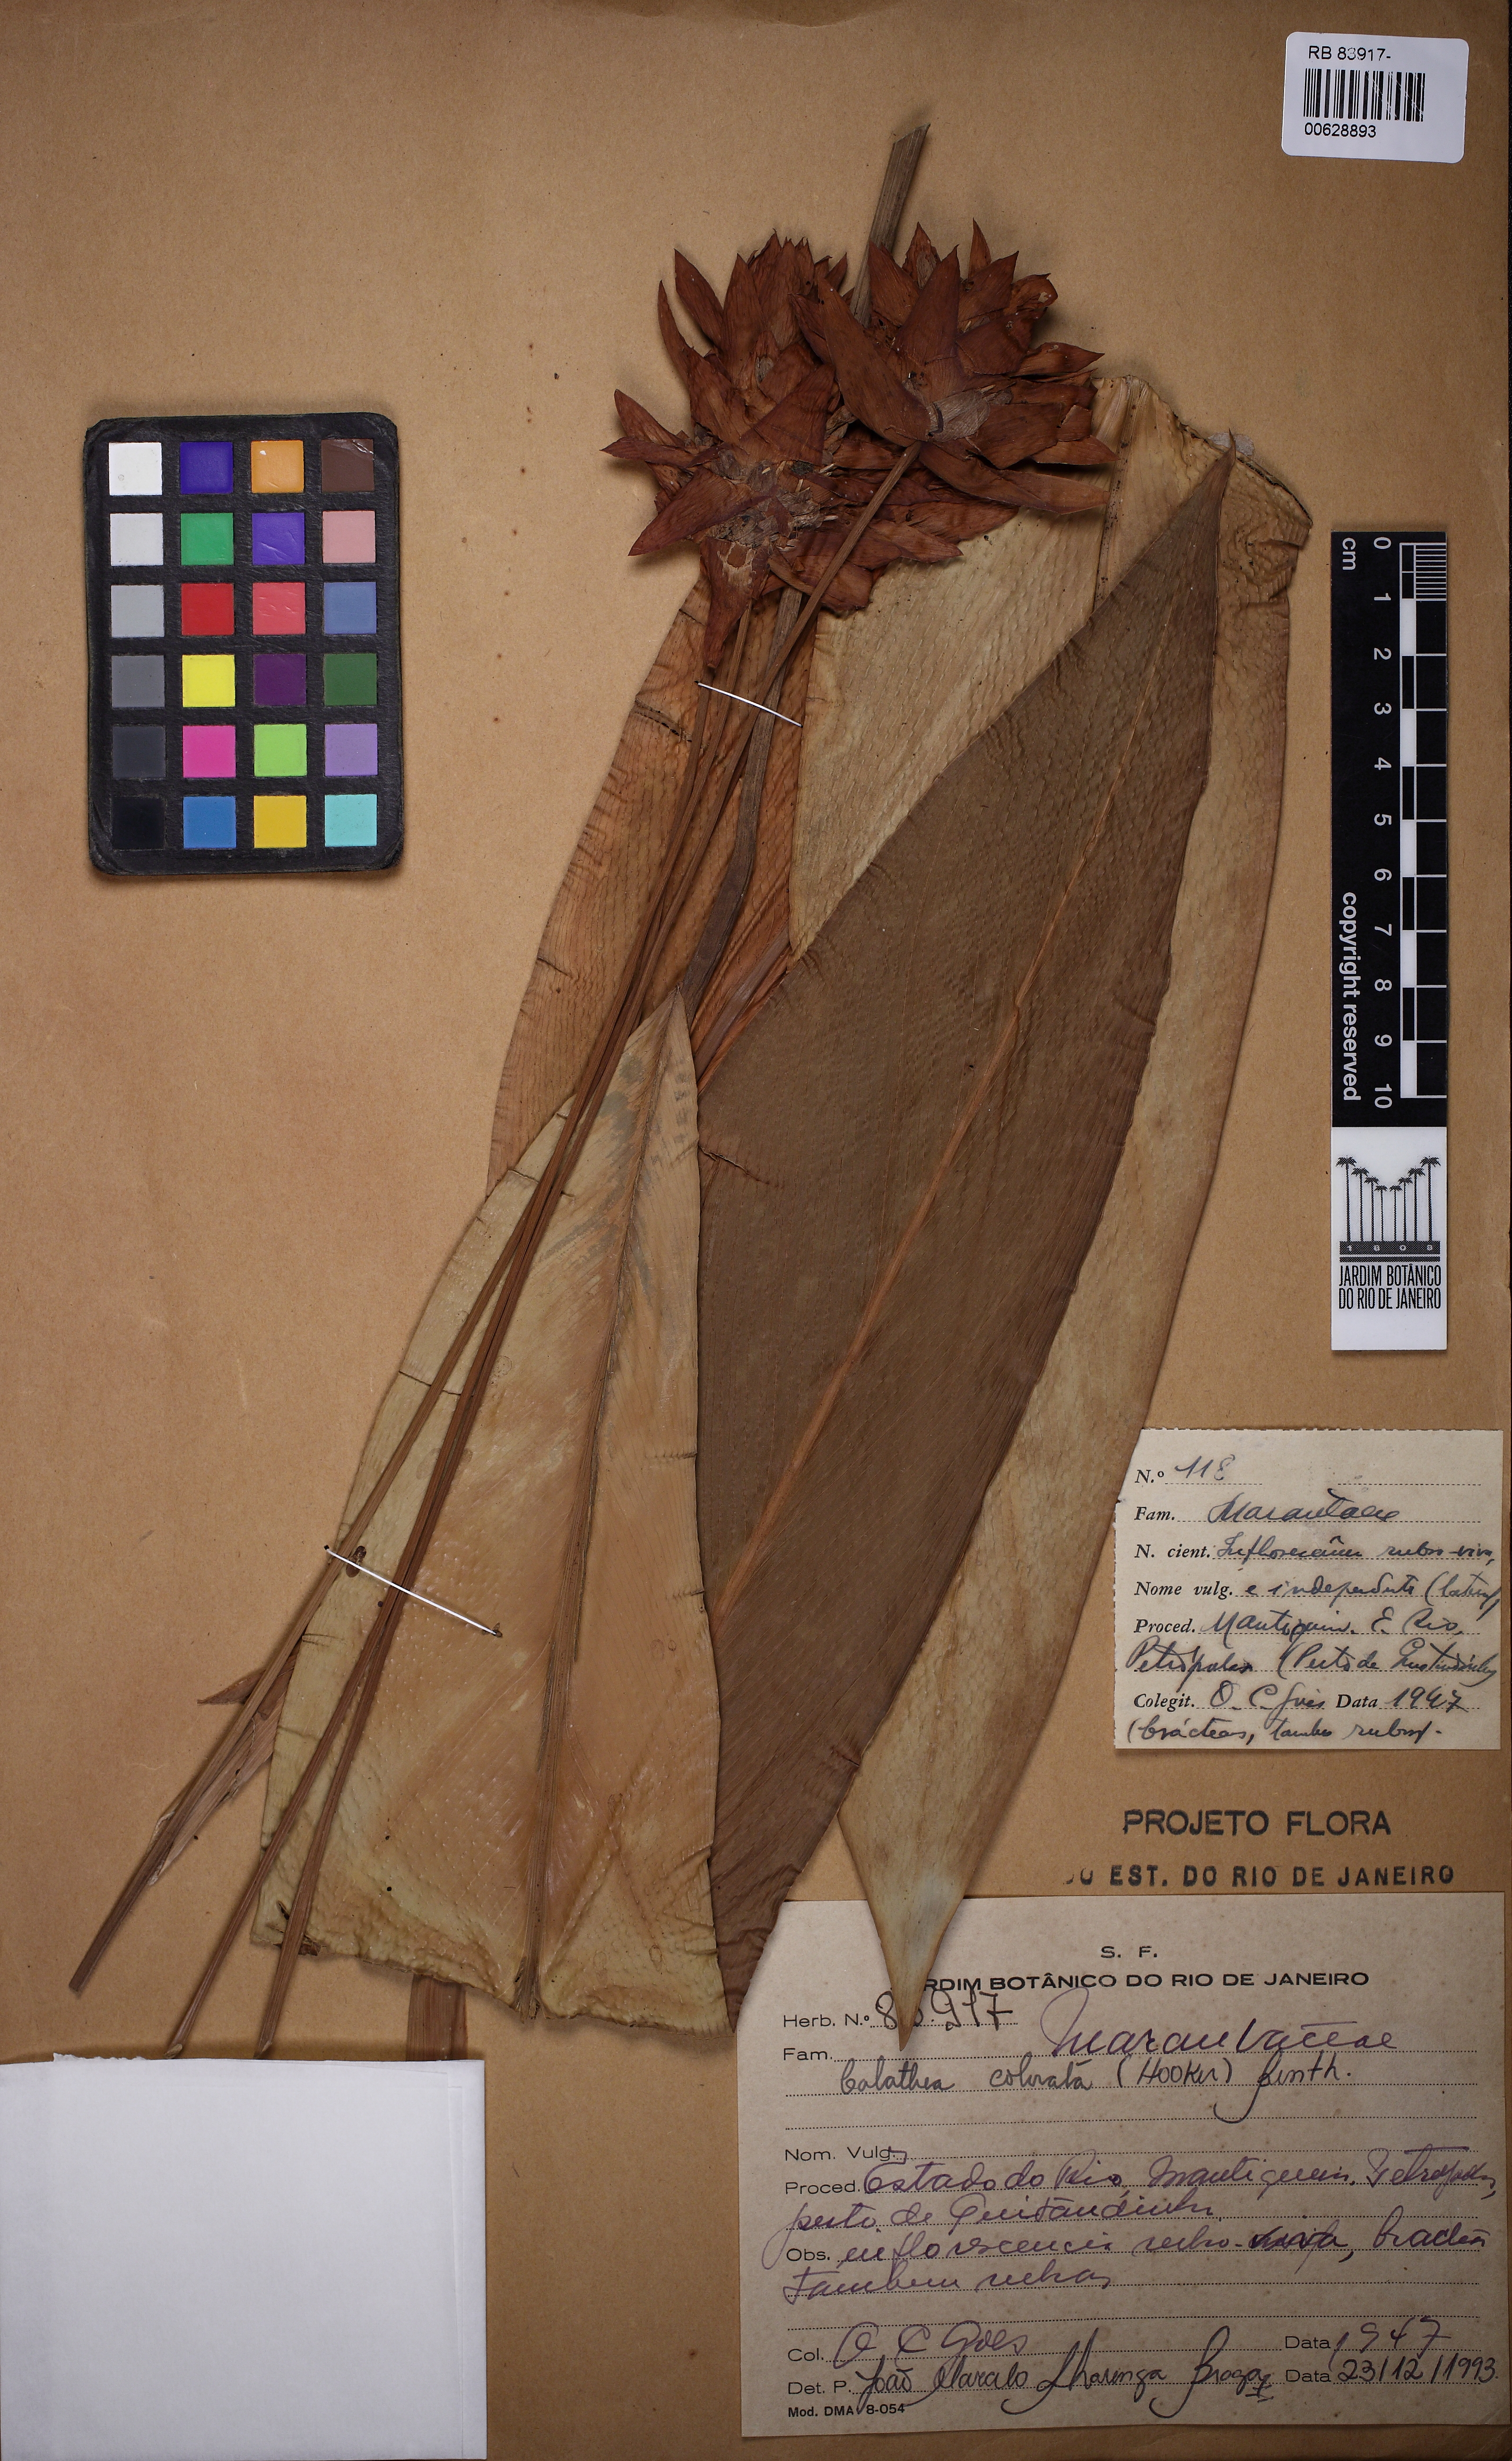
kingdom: Plantae
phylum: Tracheophyta
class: Liliopsida
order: Zingiberales
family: Marantaceae
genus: Goeppertia
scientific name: Goeppertia colorata
